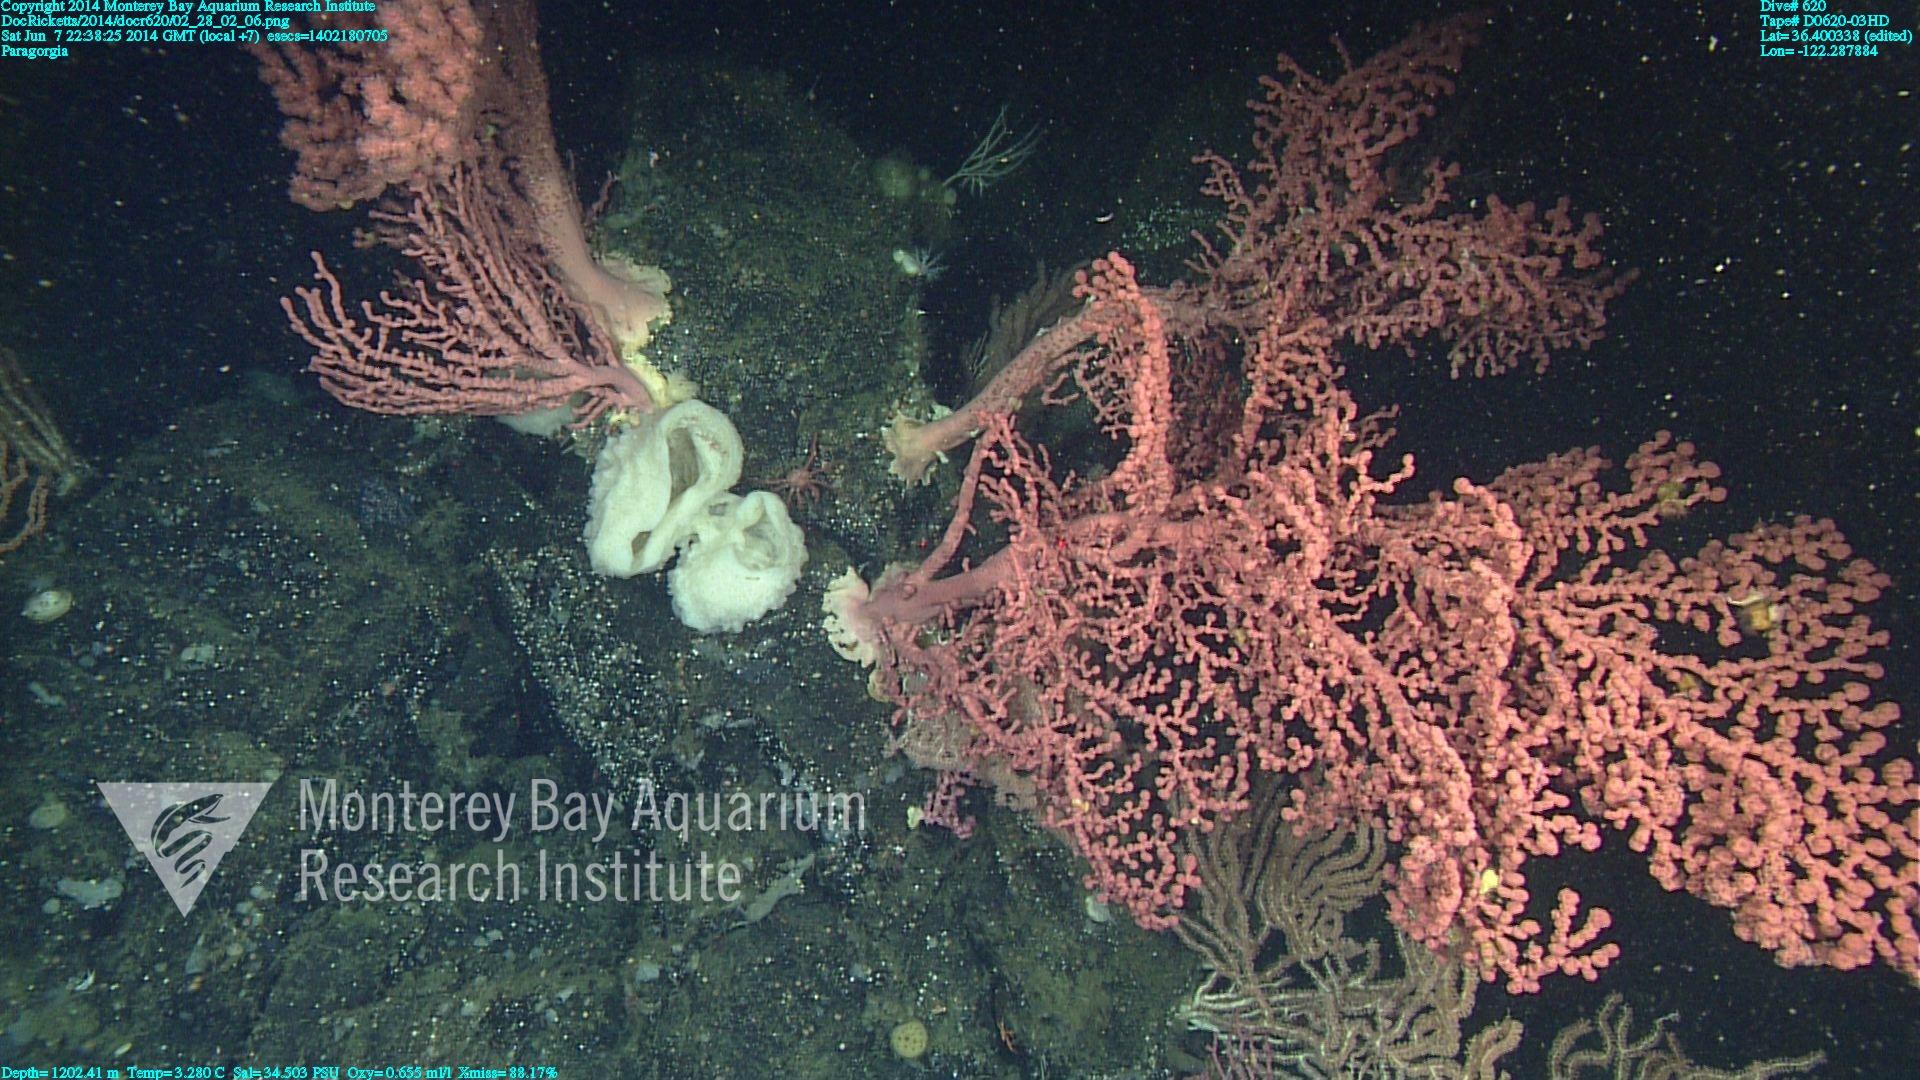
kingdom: Animalia
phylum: Cnidaria
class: Anthozoa
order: Scleralcyonacea
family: Coralliidae
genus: Paragorgia
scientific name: Paragorgia arborea
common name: Bubble gum coral
